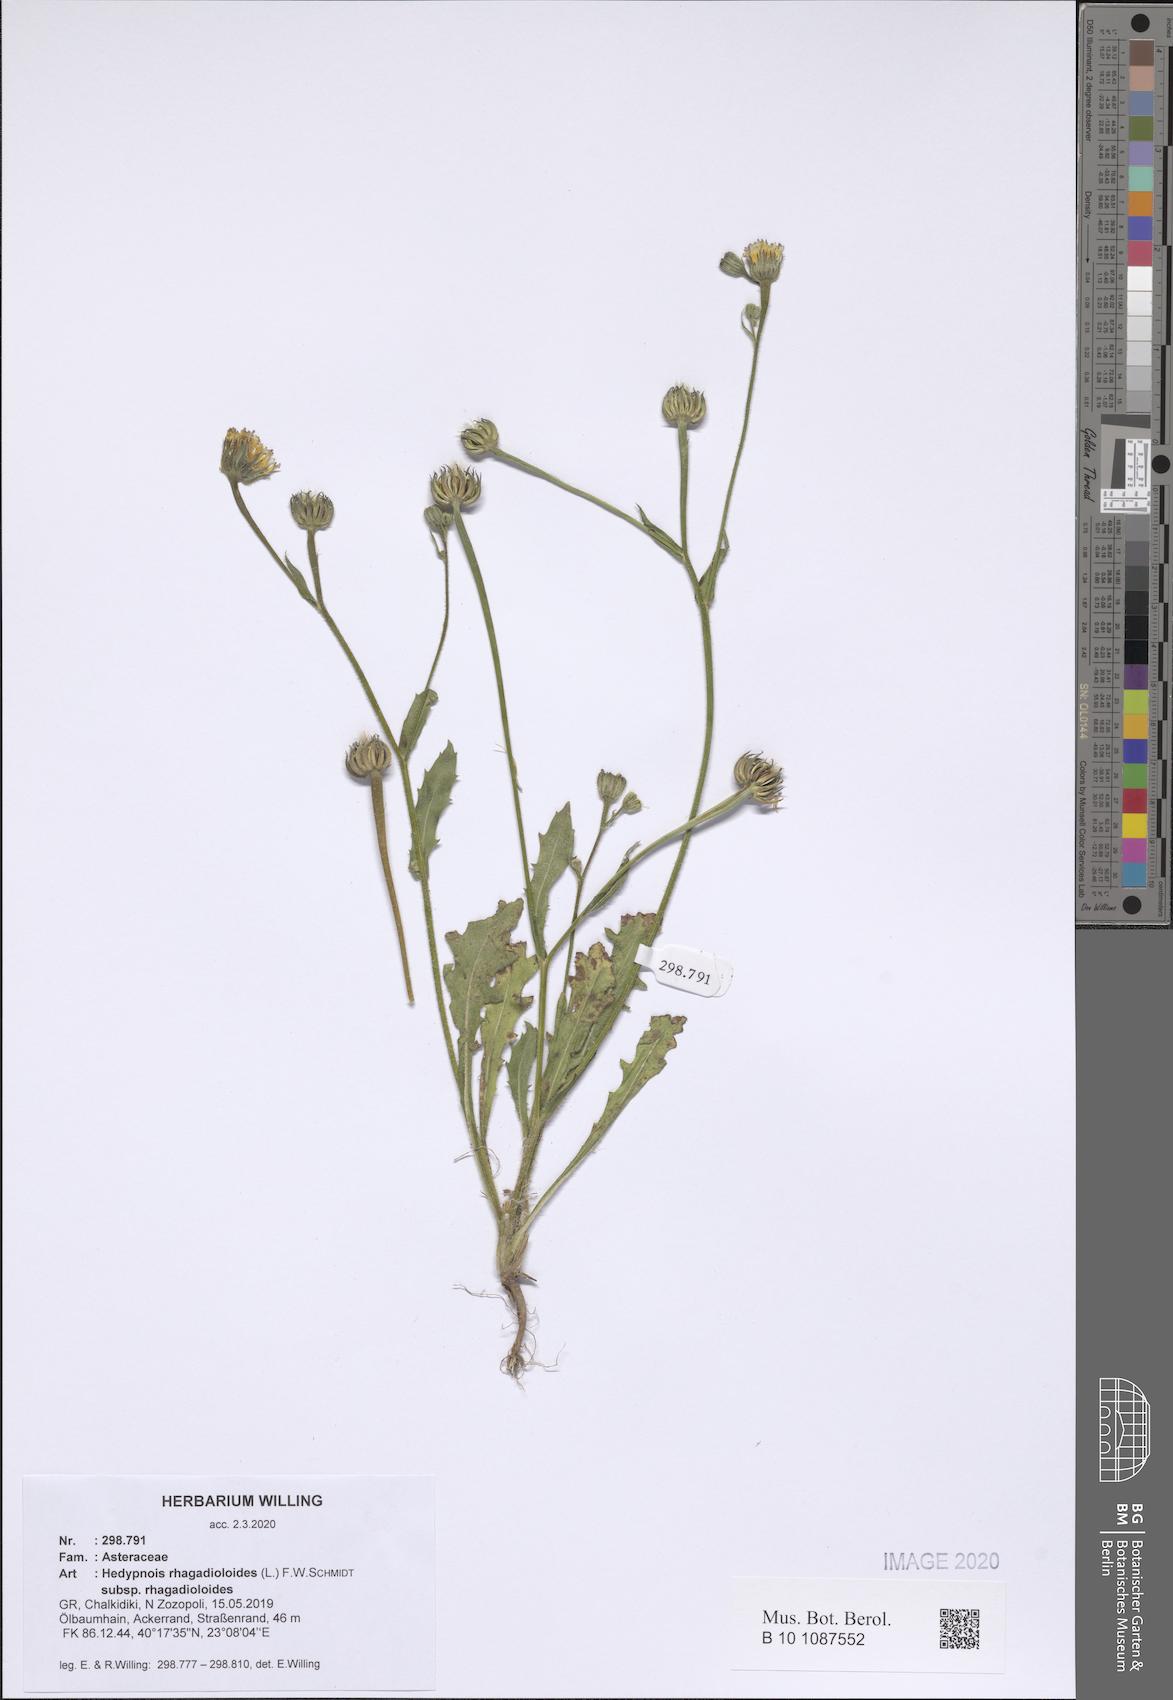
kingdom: Plantae
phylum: Tracheophyta
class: Magnoliopsida
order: Asterales
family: Asteraceae
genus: Hedypnois
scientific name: Hedypnois rhagadioloides
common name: Cretan weed
